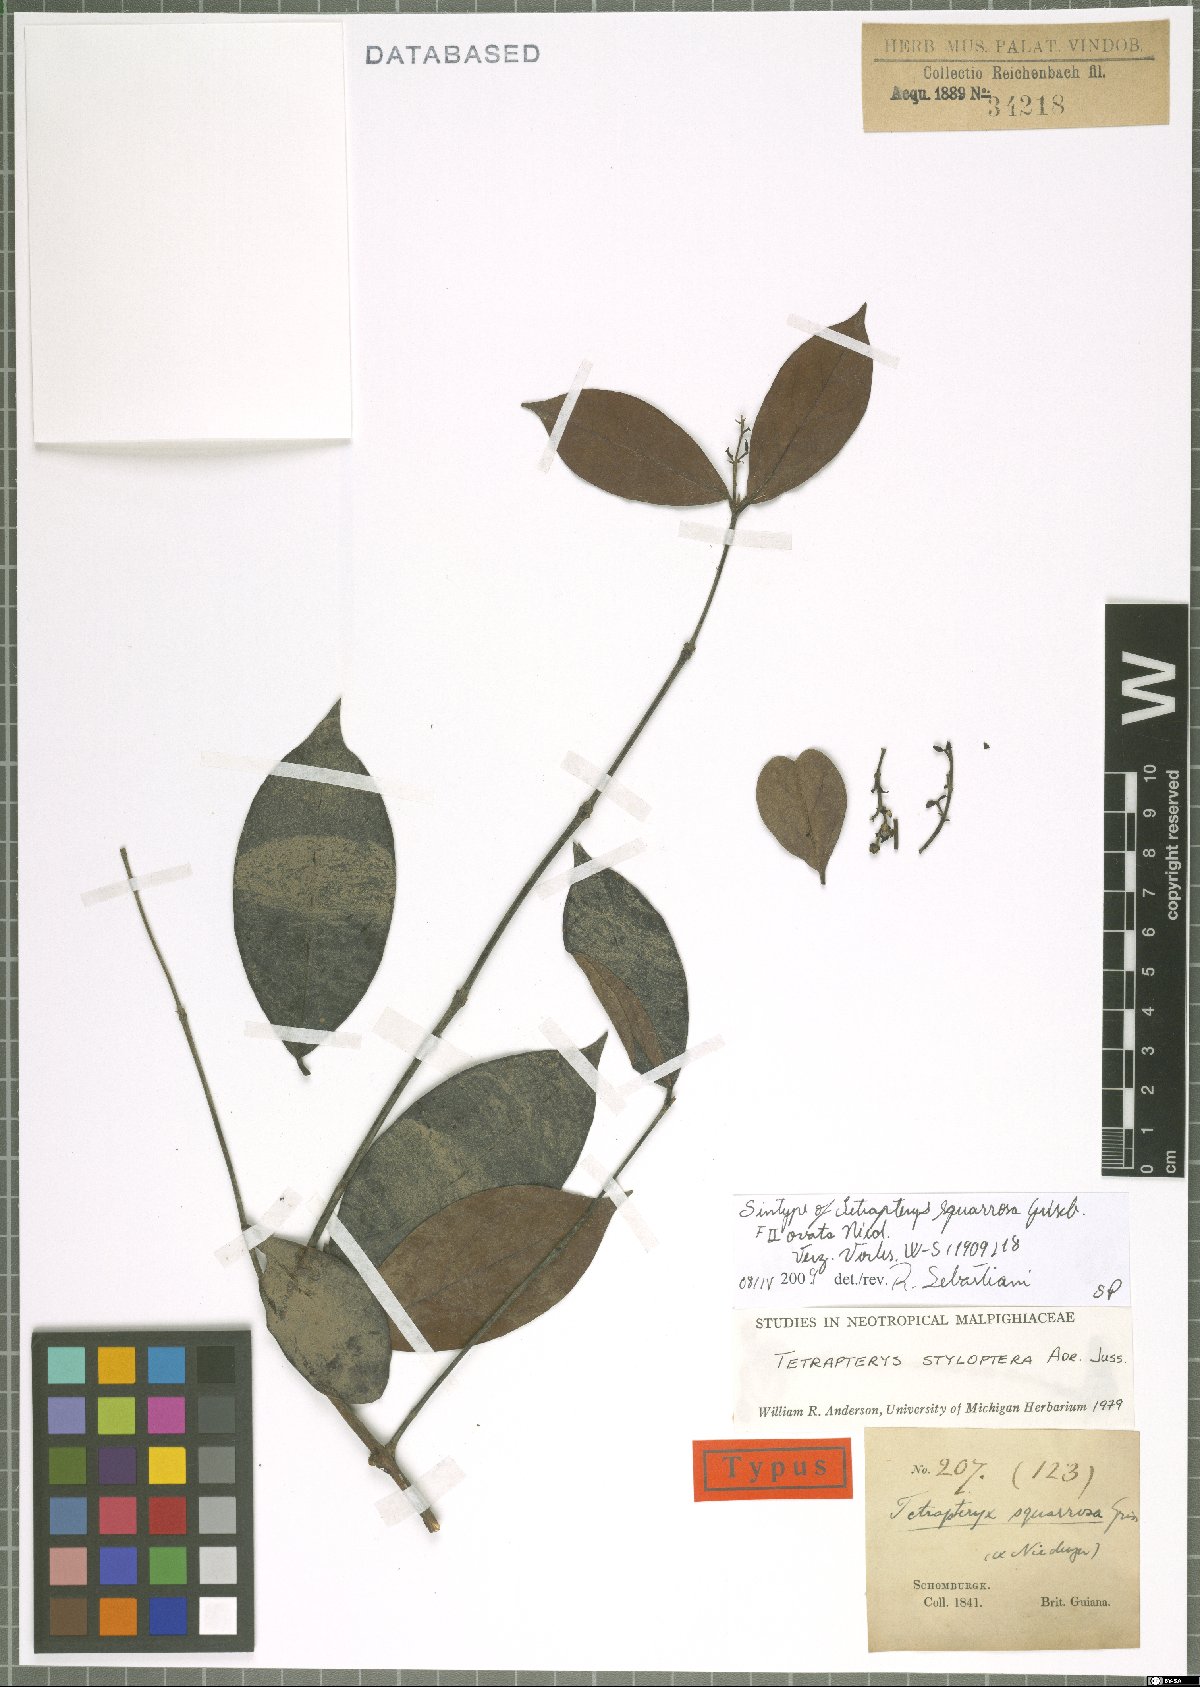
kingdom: Plantae
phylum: Tracheophyta
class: Magnoliopsida
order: Malpighiales
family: Malpighiaceae
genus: Glicophyllum
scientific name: Glicophyllum stylopterum
